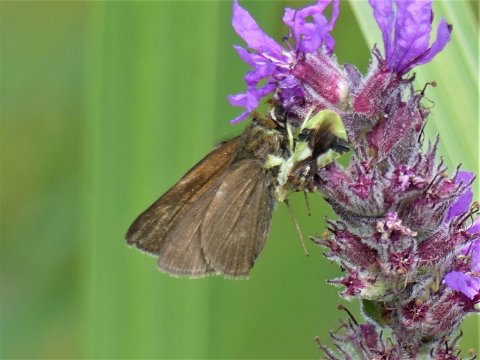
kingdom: Animalia
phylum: Arthropoda
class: Insecta
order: Lepidoptera
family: Hesperiidae
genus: Euphyes
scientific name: Euphyes vestris
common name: Dun Skipper
